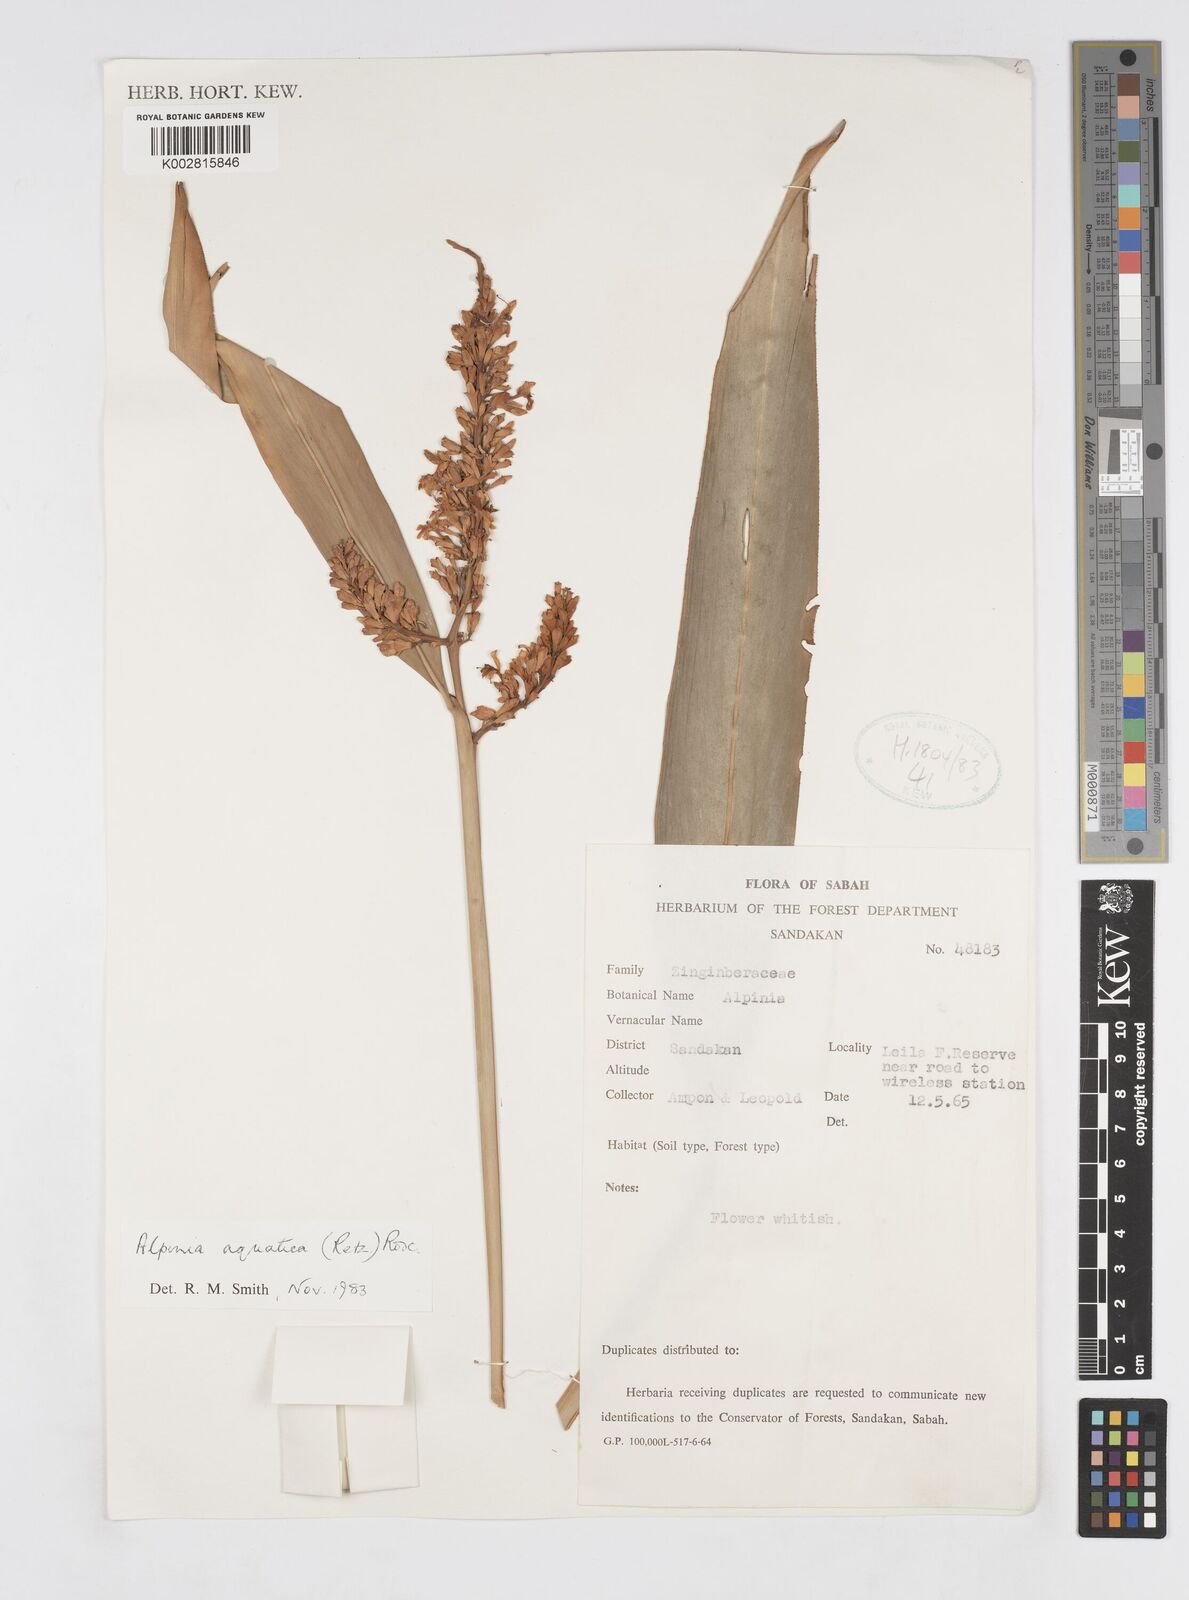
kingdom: Plantae
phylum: Tracheophyta
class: Liliopsida
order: Zingiberales
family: Zingiberaceae
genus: Alpinia
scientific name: Alpinia aquatica
